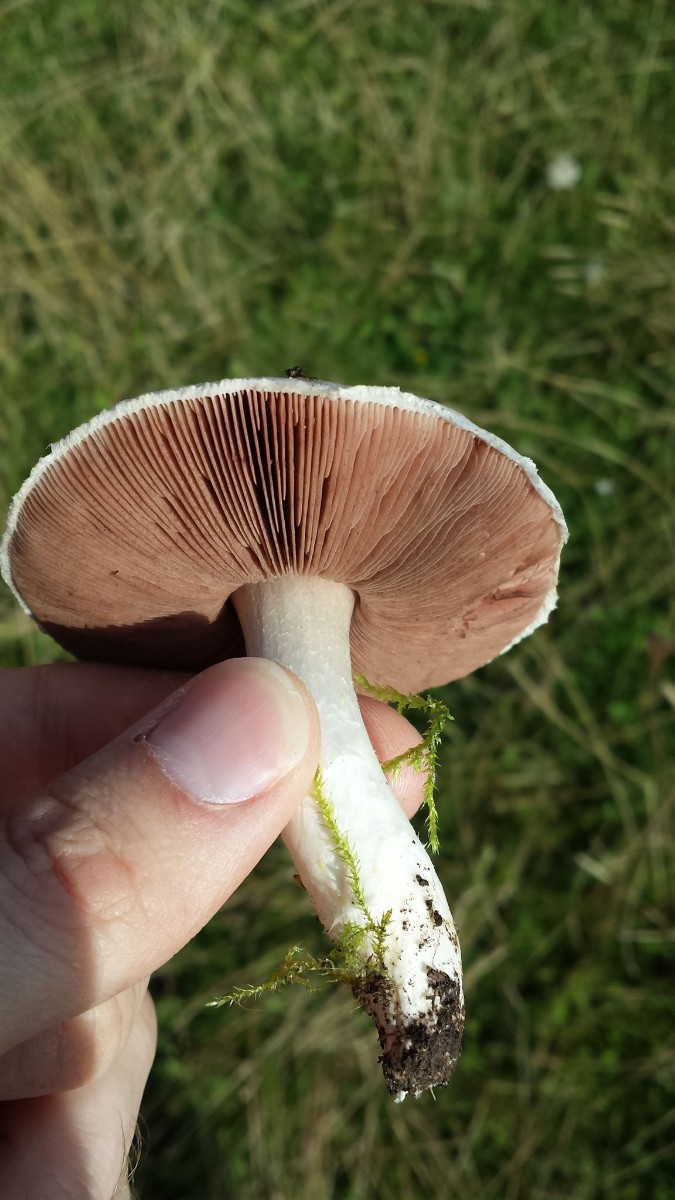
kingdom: Fungi
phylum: Basidiomycota
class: Agaricomycetes
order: Agaricales
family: Agaricaceae
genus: Agaricus
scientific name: Agaricus campestris
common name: mark-champignon
